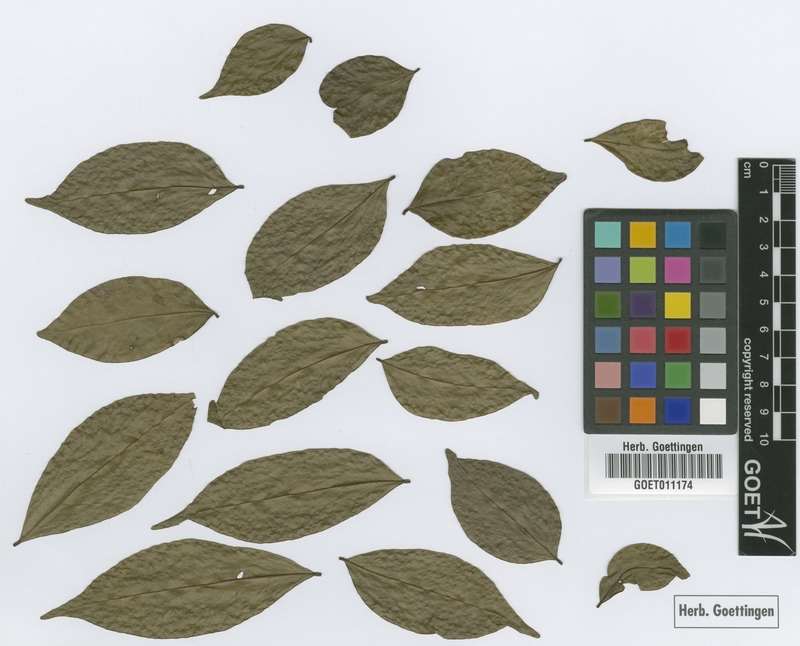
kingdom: Plantae
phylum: Tracheophyta
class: Magnoliopsida
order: Picramniales
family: Picramniaceae
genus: Picramnia
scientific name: Picramnia pentandra
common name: Florida bitterbush
